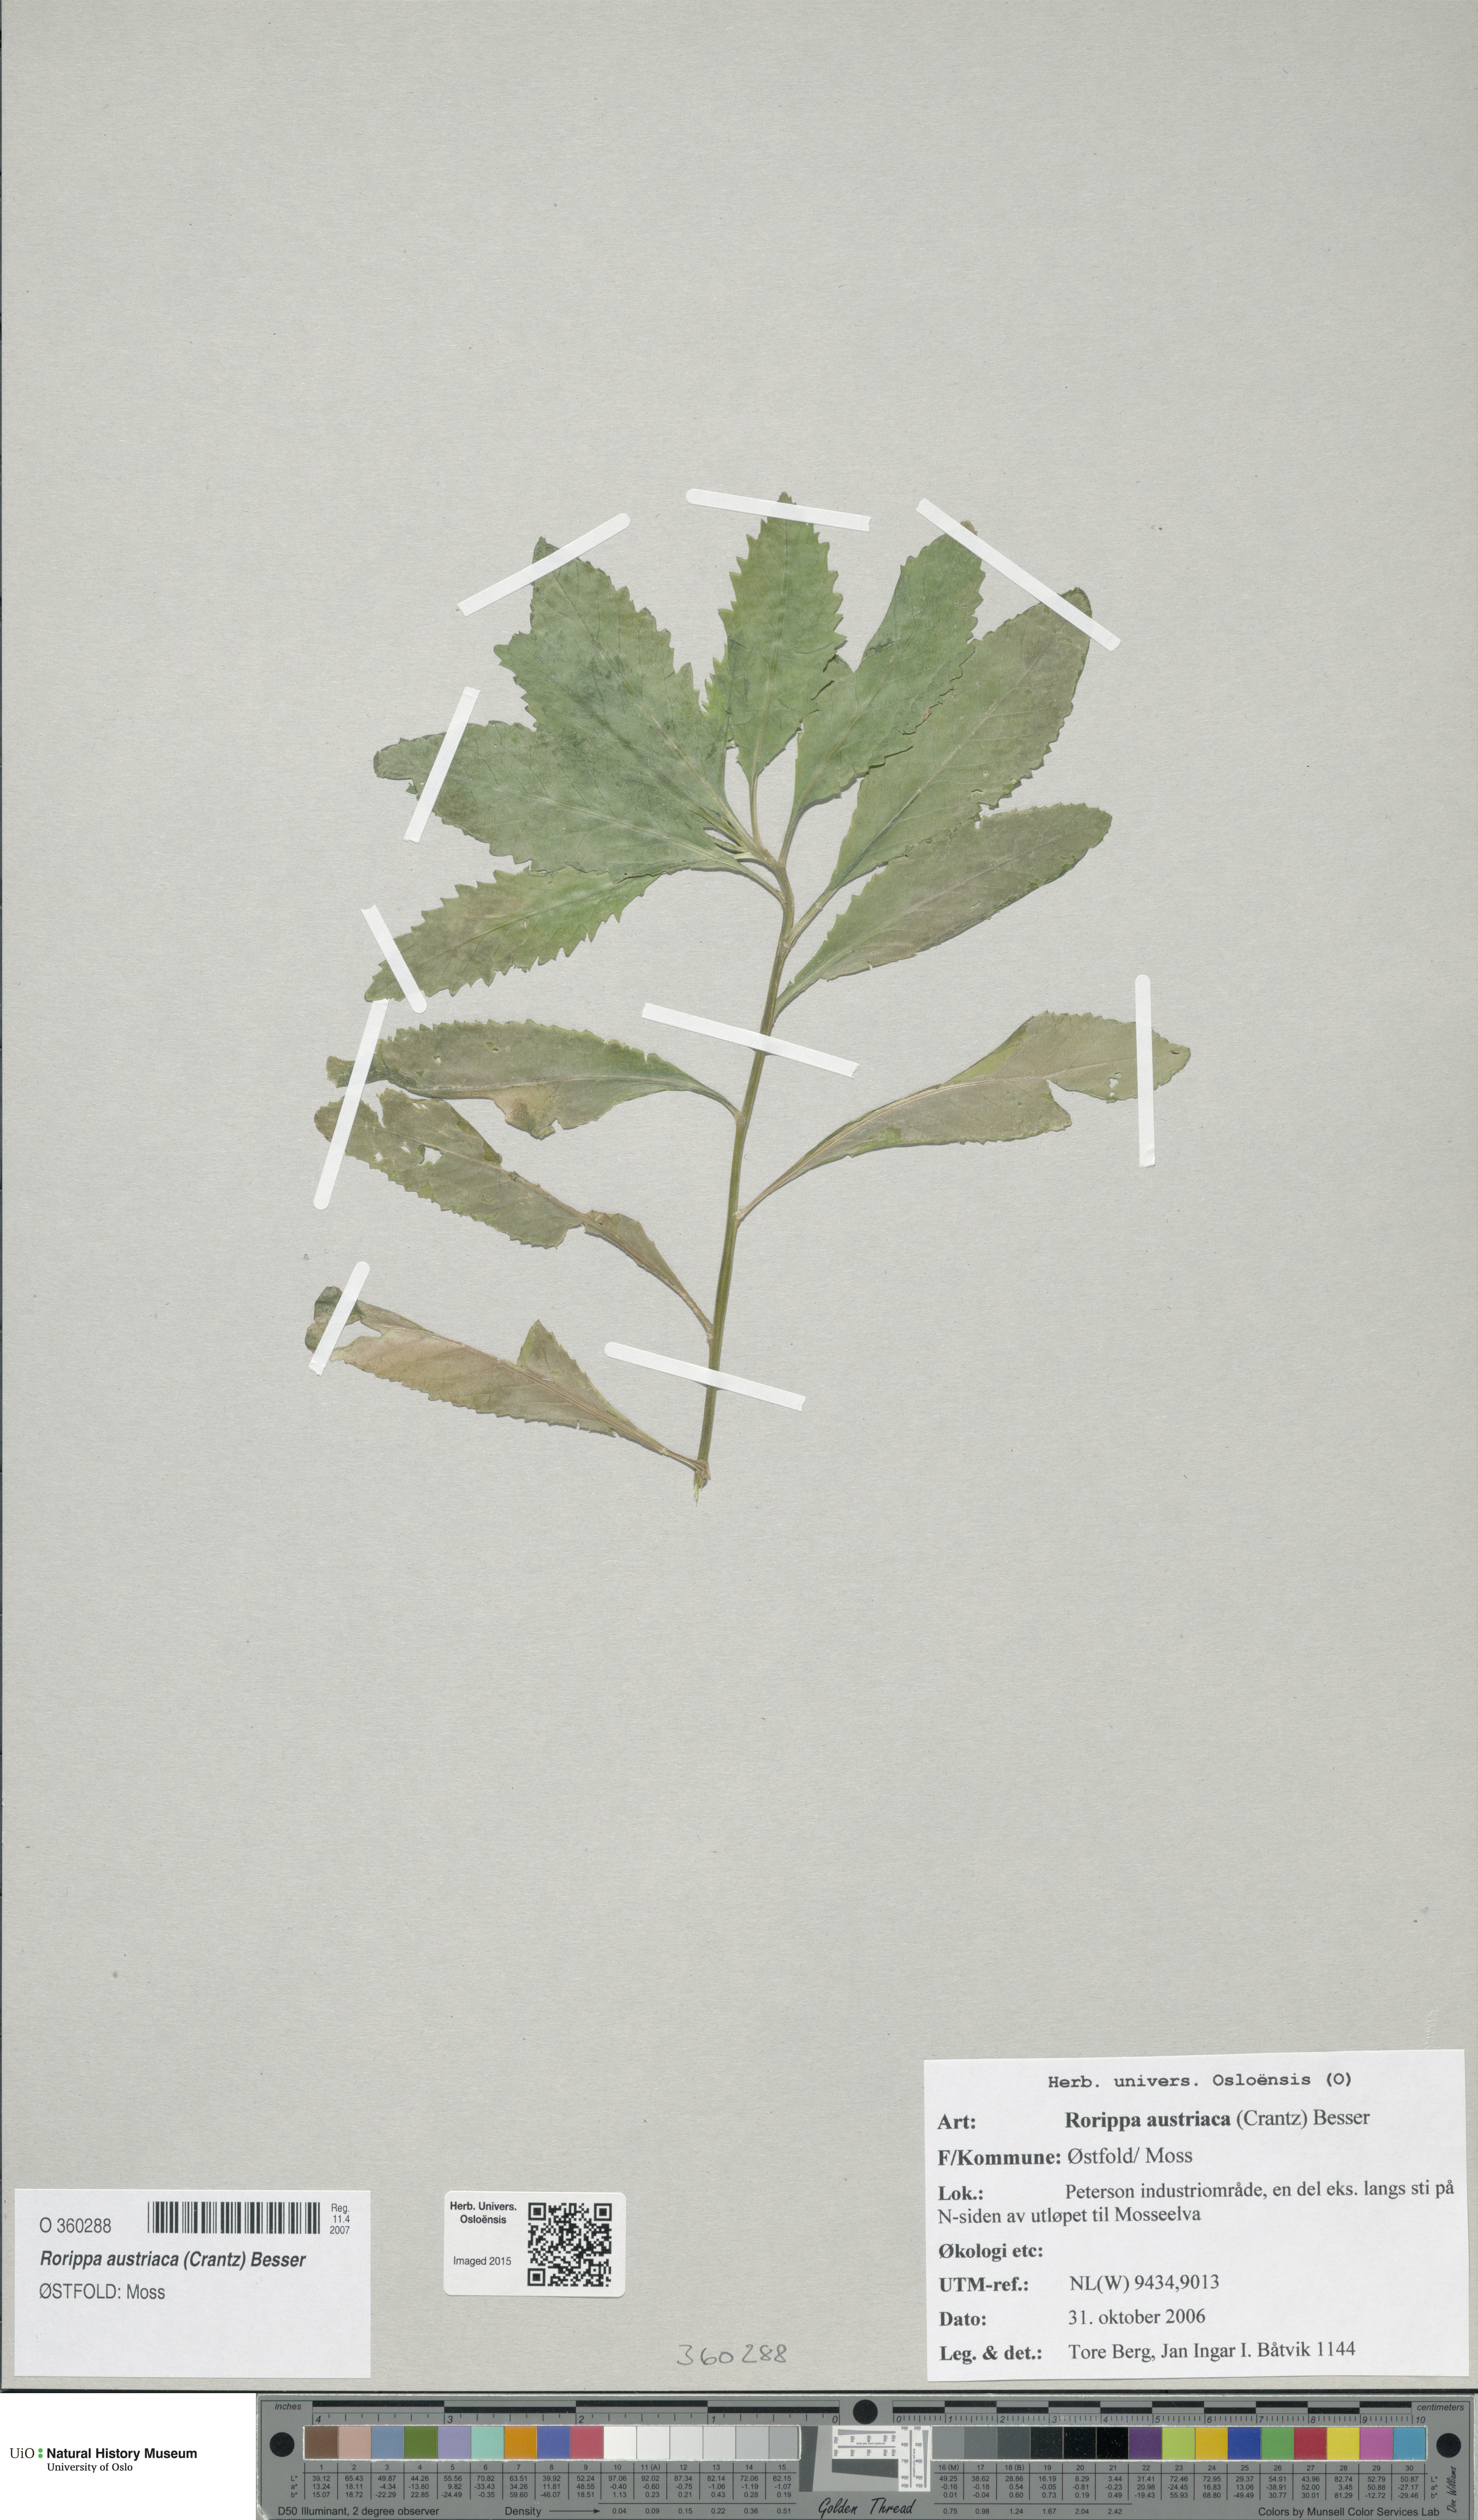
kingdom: Plantae
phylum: Tracheophyta
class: Magnoliopsida
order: Brassicales
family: Brassicaceae
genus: Rorippa
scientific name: Rorippa austriaca
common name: Austrian yellow-cress
